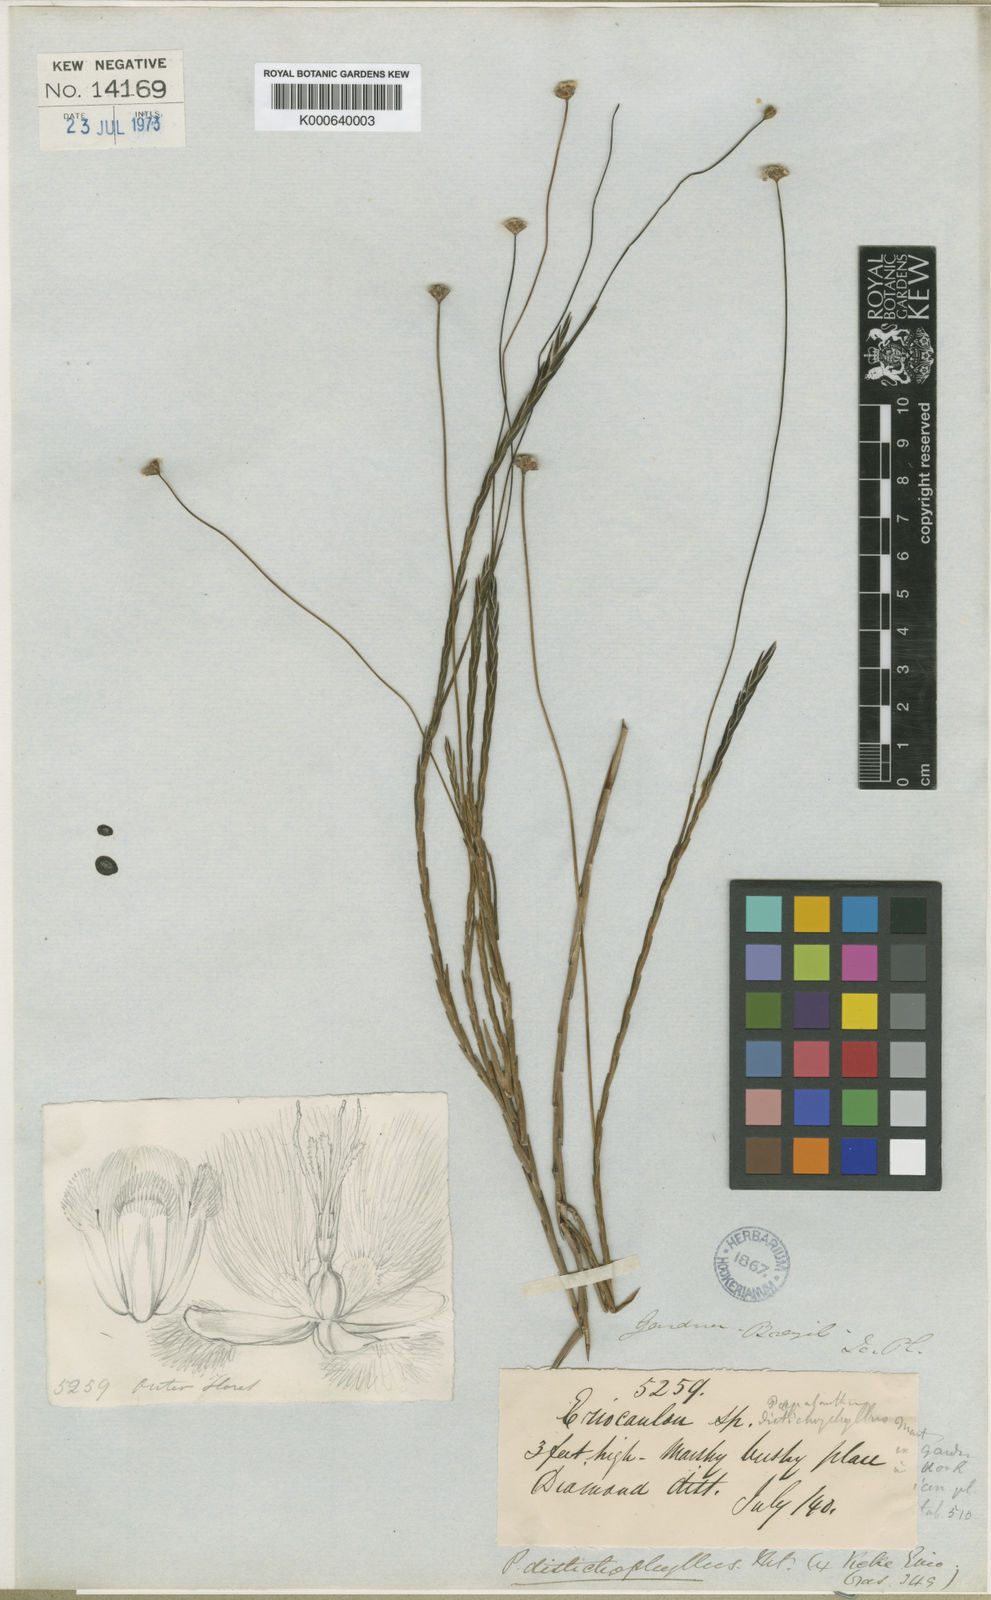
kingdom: Plantae
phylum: Tracheophyta
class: Liliopsida
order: Poales
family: Eriocaulaceae
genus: Paepalanthus
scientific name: Paepalanthus distichophyllus
